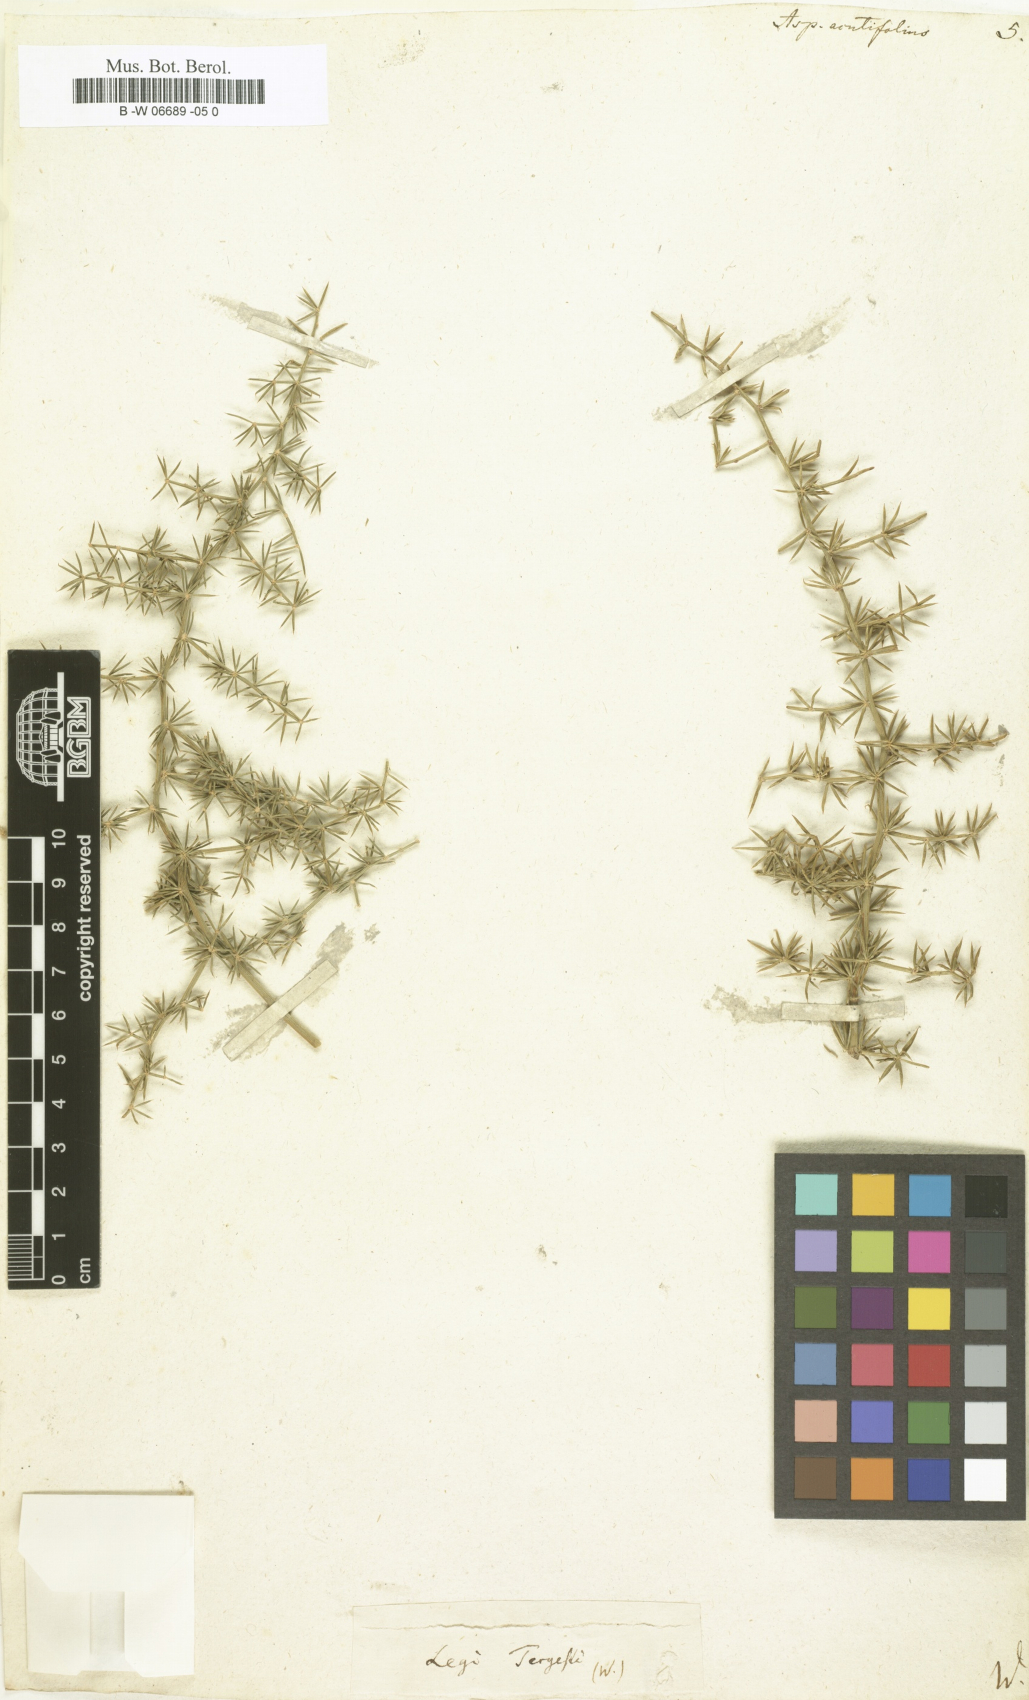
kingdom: Plantae
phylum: Tracheophyta
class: Liliopsida
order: Asparagales
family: Asparagaceae
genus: Asparagus
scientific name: Asparagus acutifolius
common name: Wild asparagus
